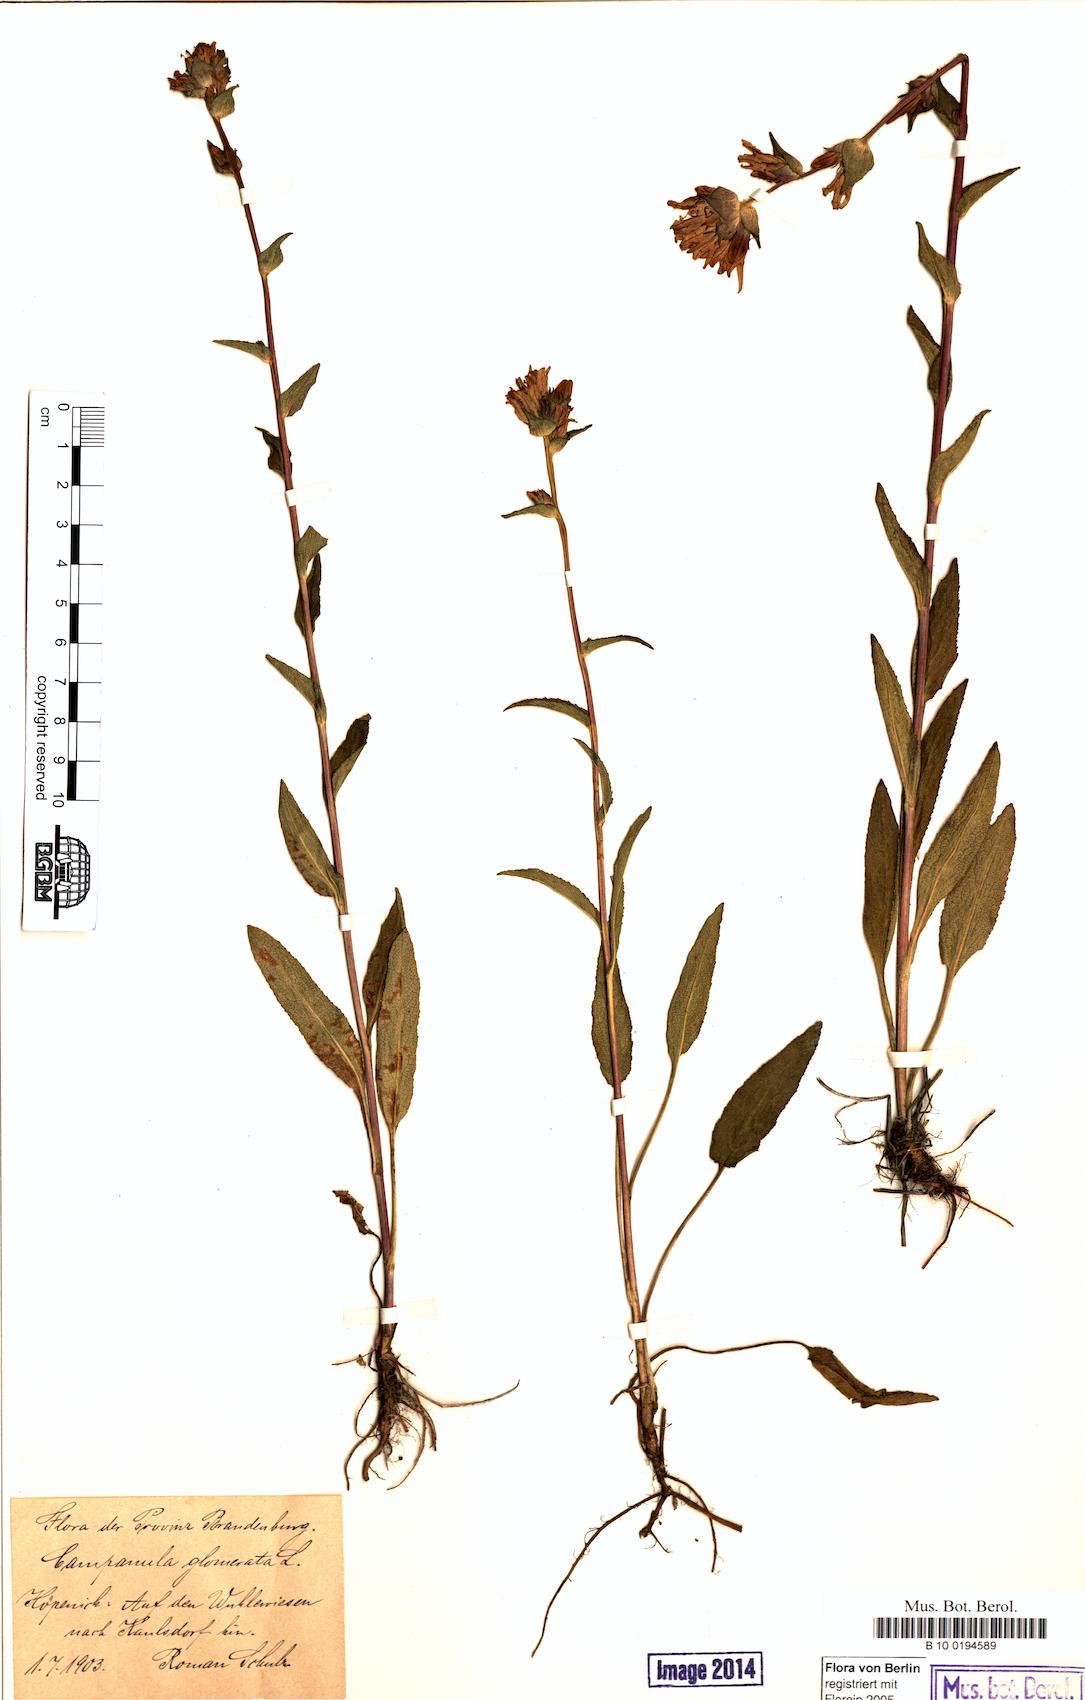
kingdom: Plantae
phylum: Tracheophyta
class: Magnoliopsida
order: Asterales
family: Campanulaceae
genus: Campanula
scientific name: Campanula glomerata
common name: Clustered bellflower
